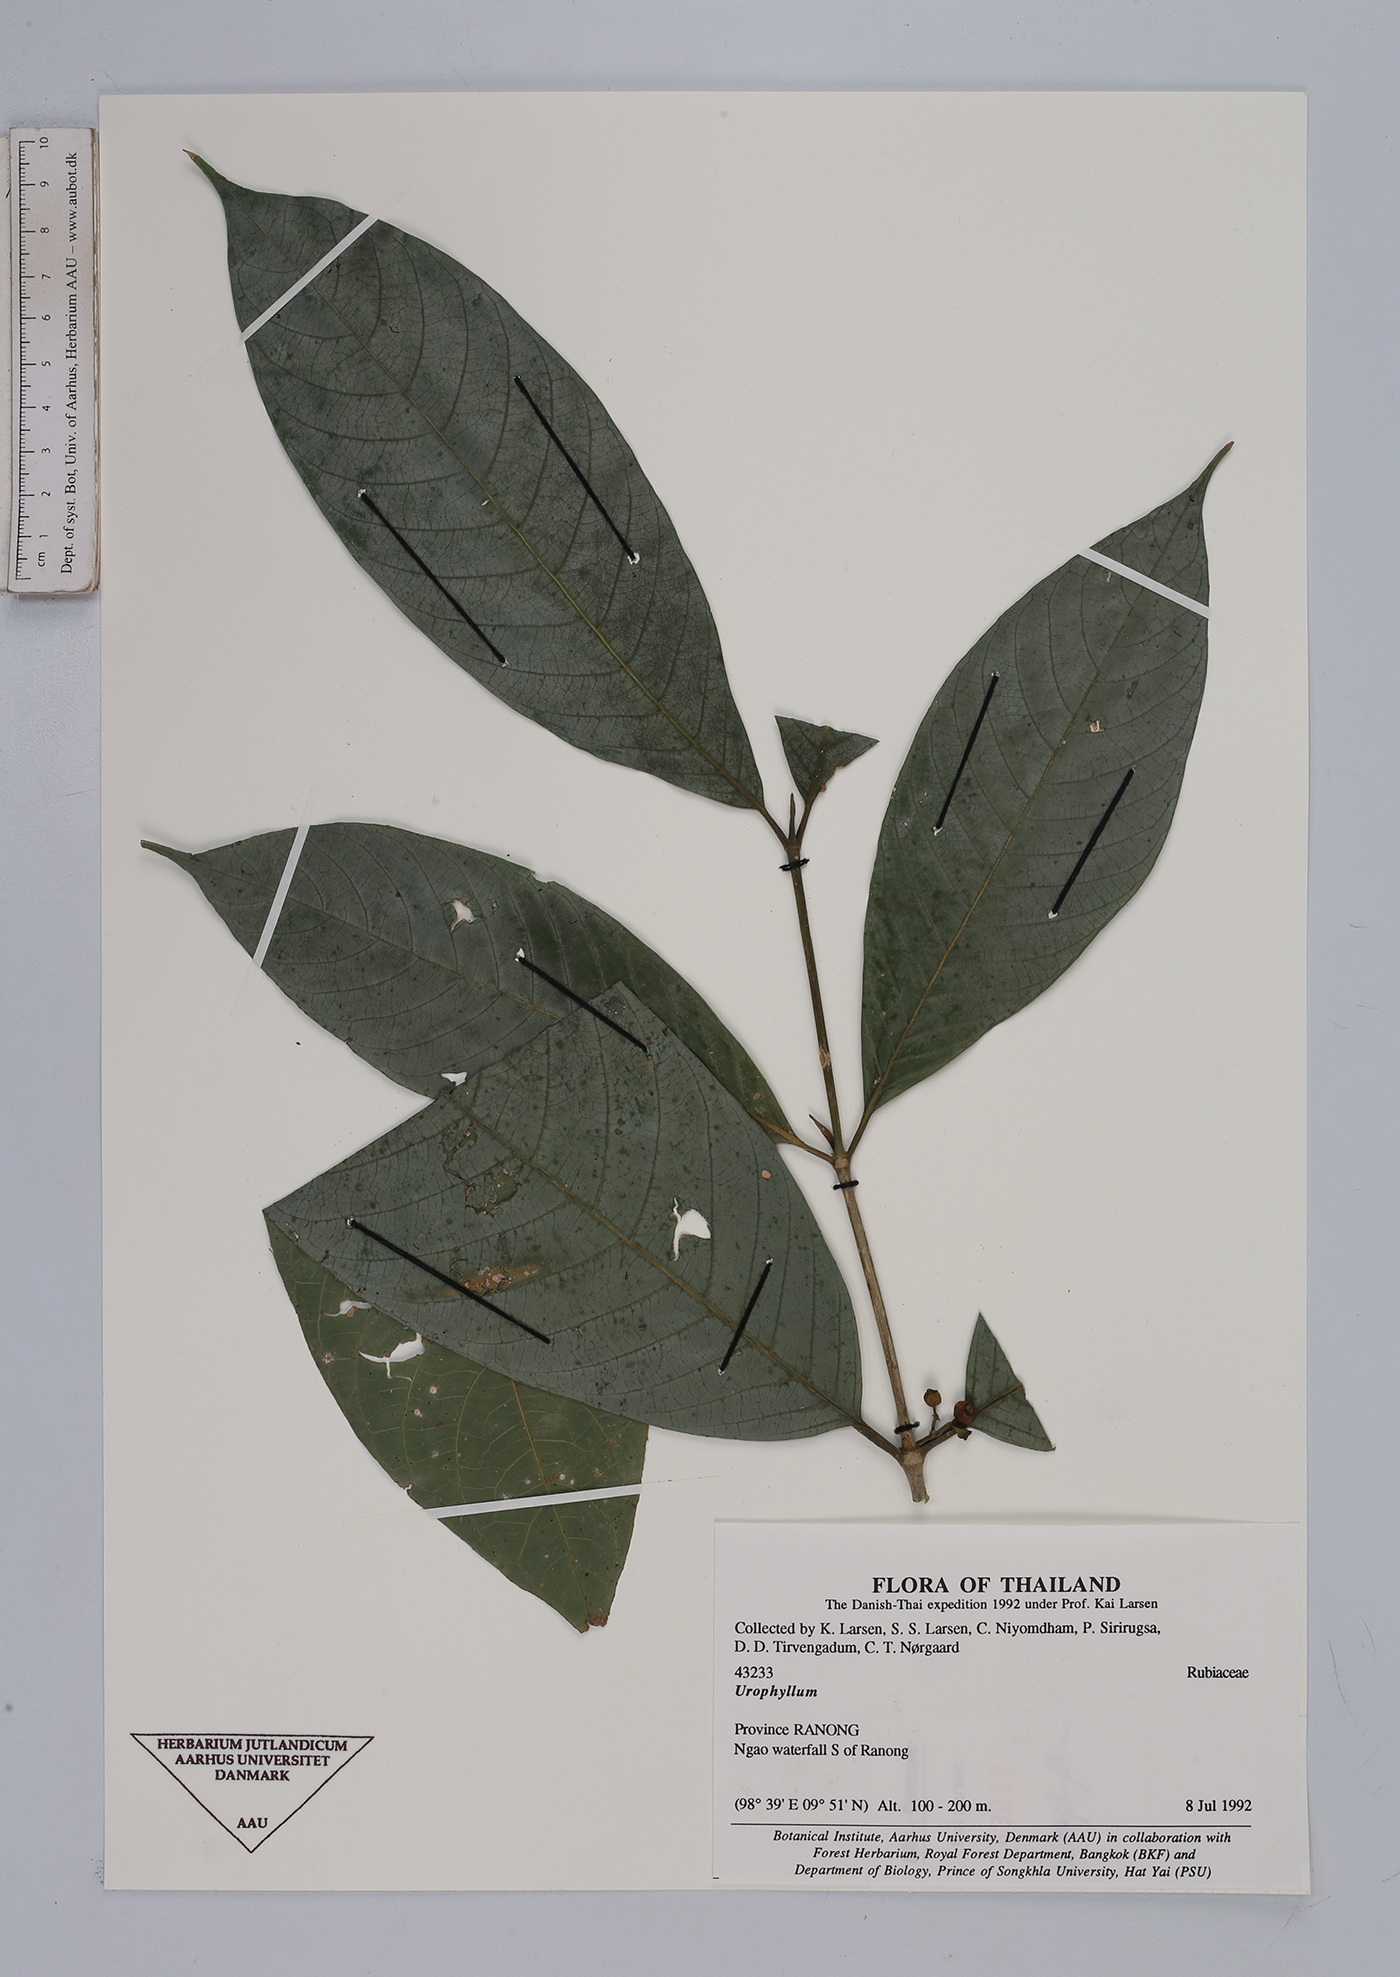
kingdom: Plantae
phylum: Tracheophyta
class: Magnoliopsida
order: Gentianales
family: Rubiaceae
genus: Urophyllum
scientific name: Urophyllum
